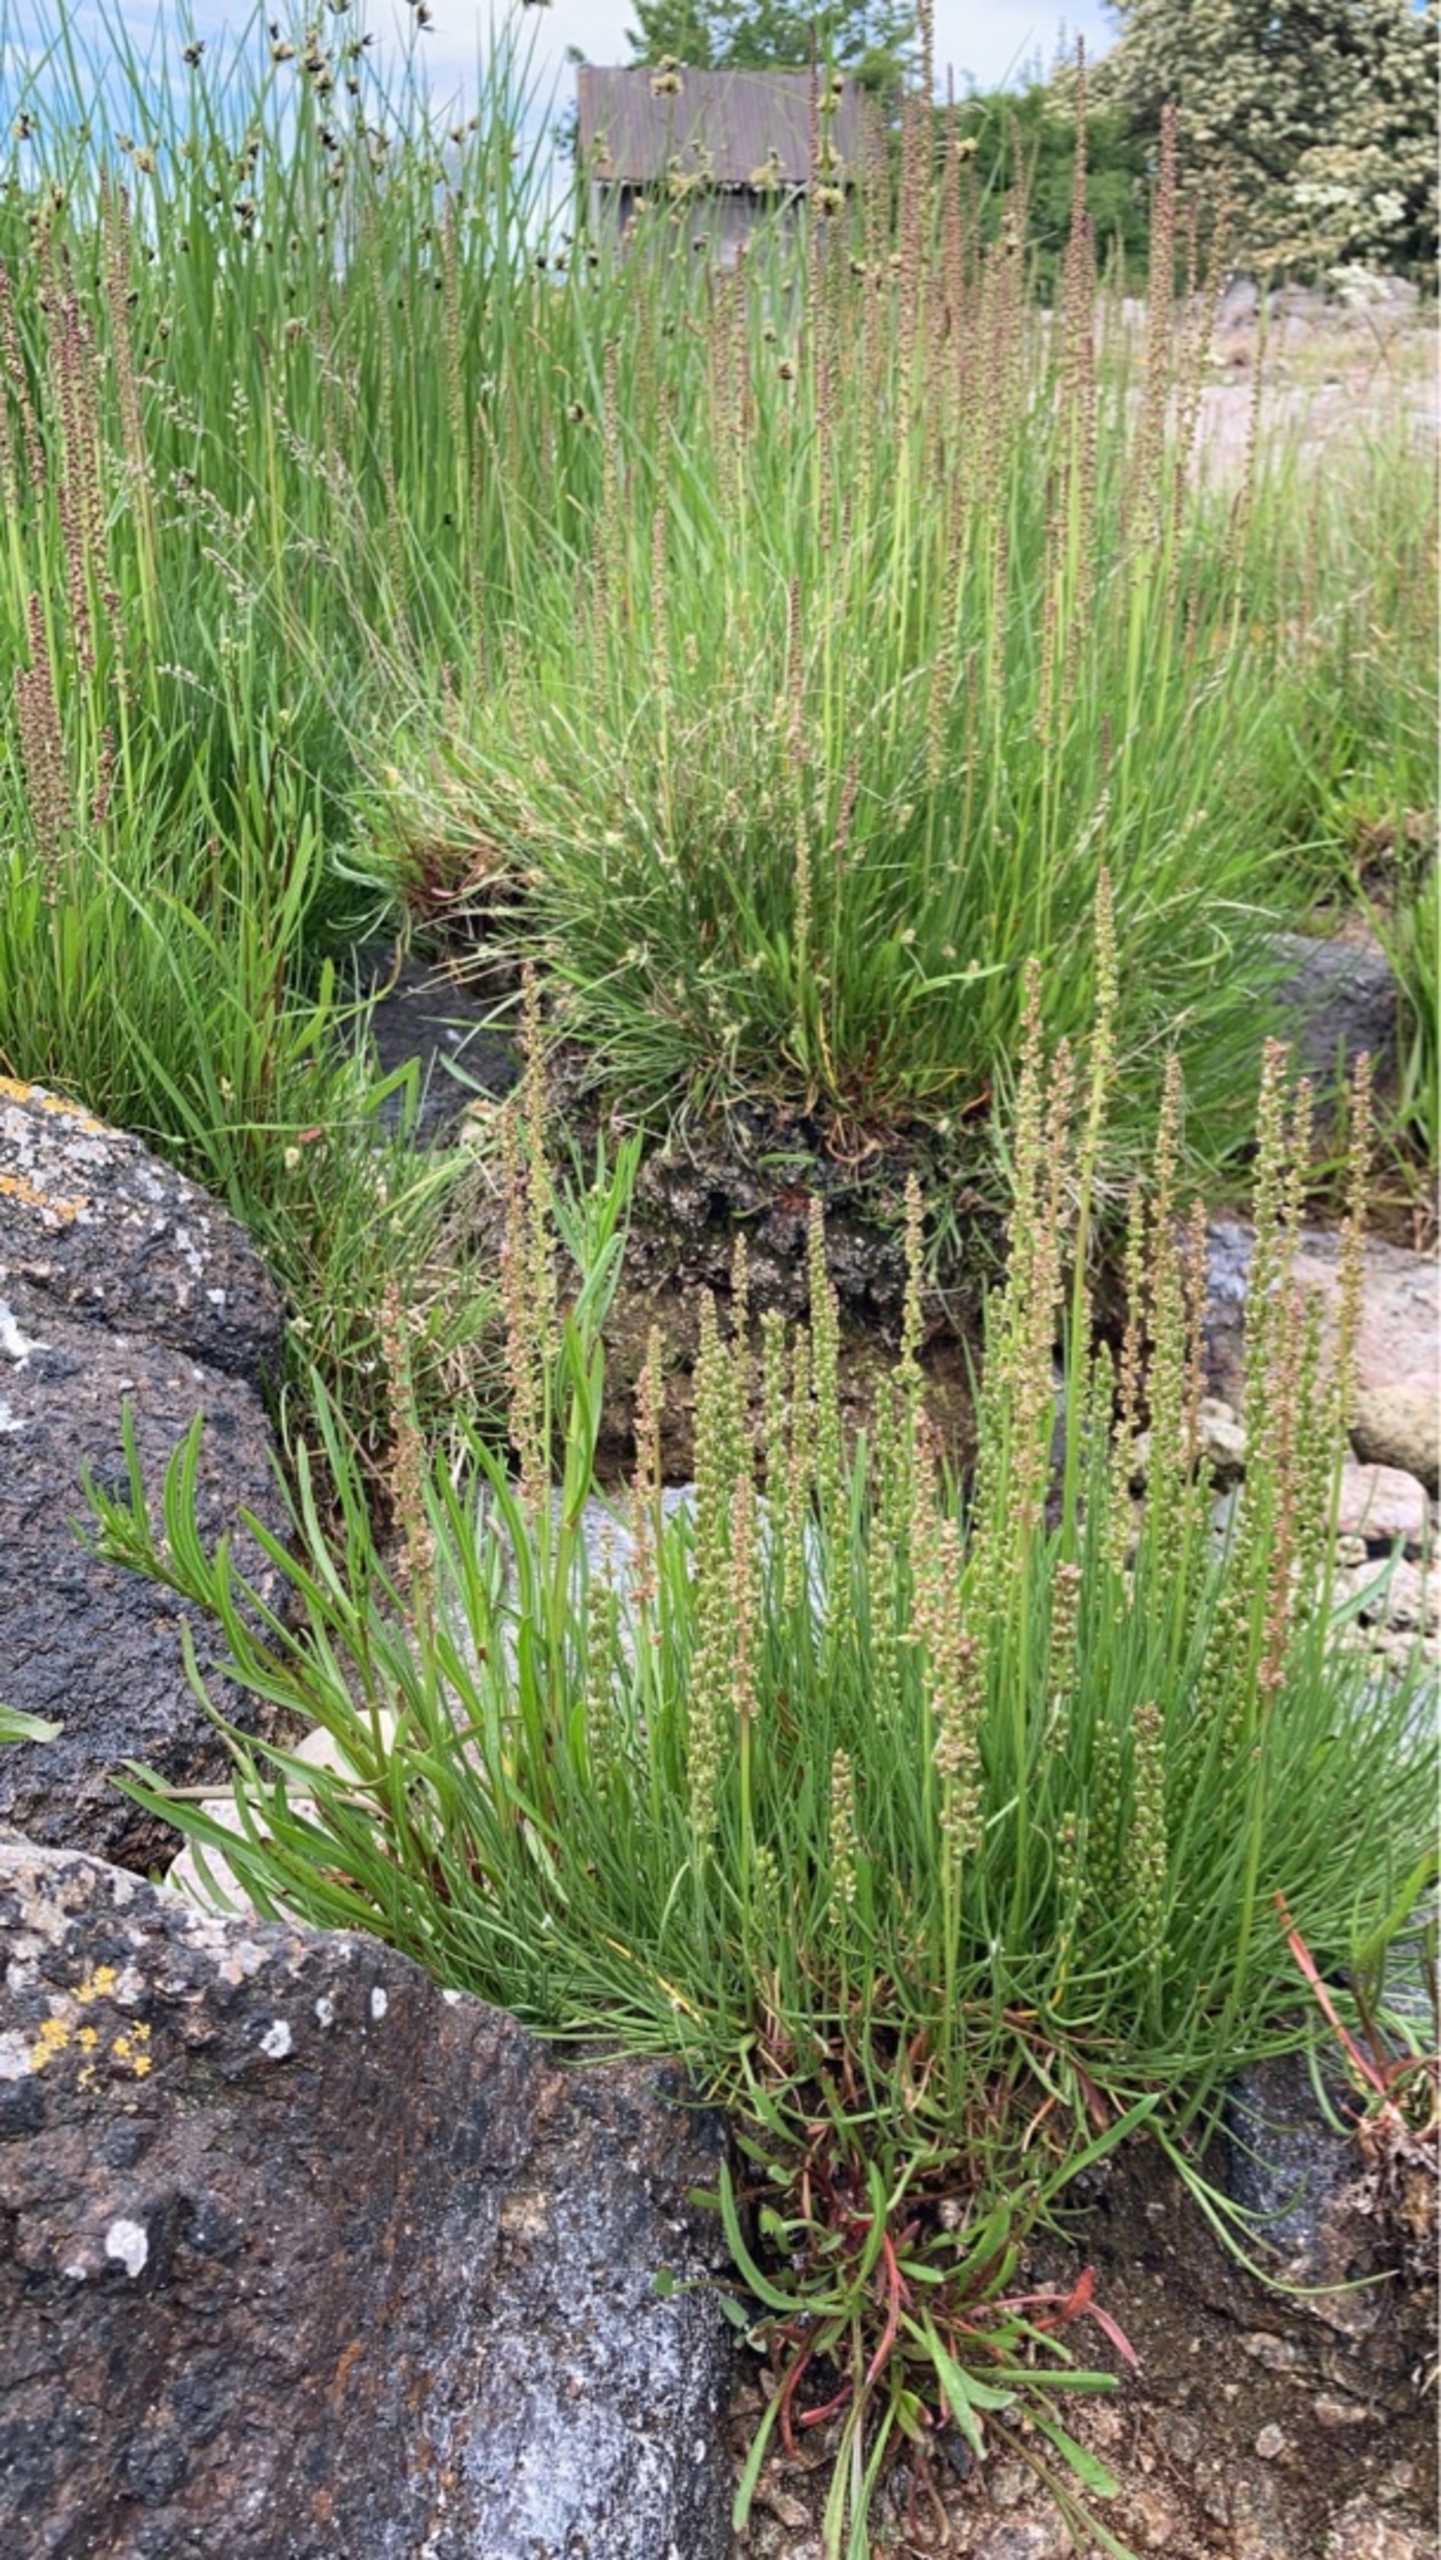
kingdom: Plantae
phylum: Tracheophyta
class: Liliopsida
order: Alismatales
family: Juncaginaceae
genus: Triglochin
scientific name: Triglochin maritima
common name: Strand-trehage
